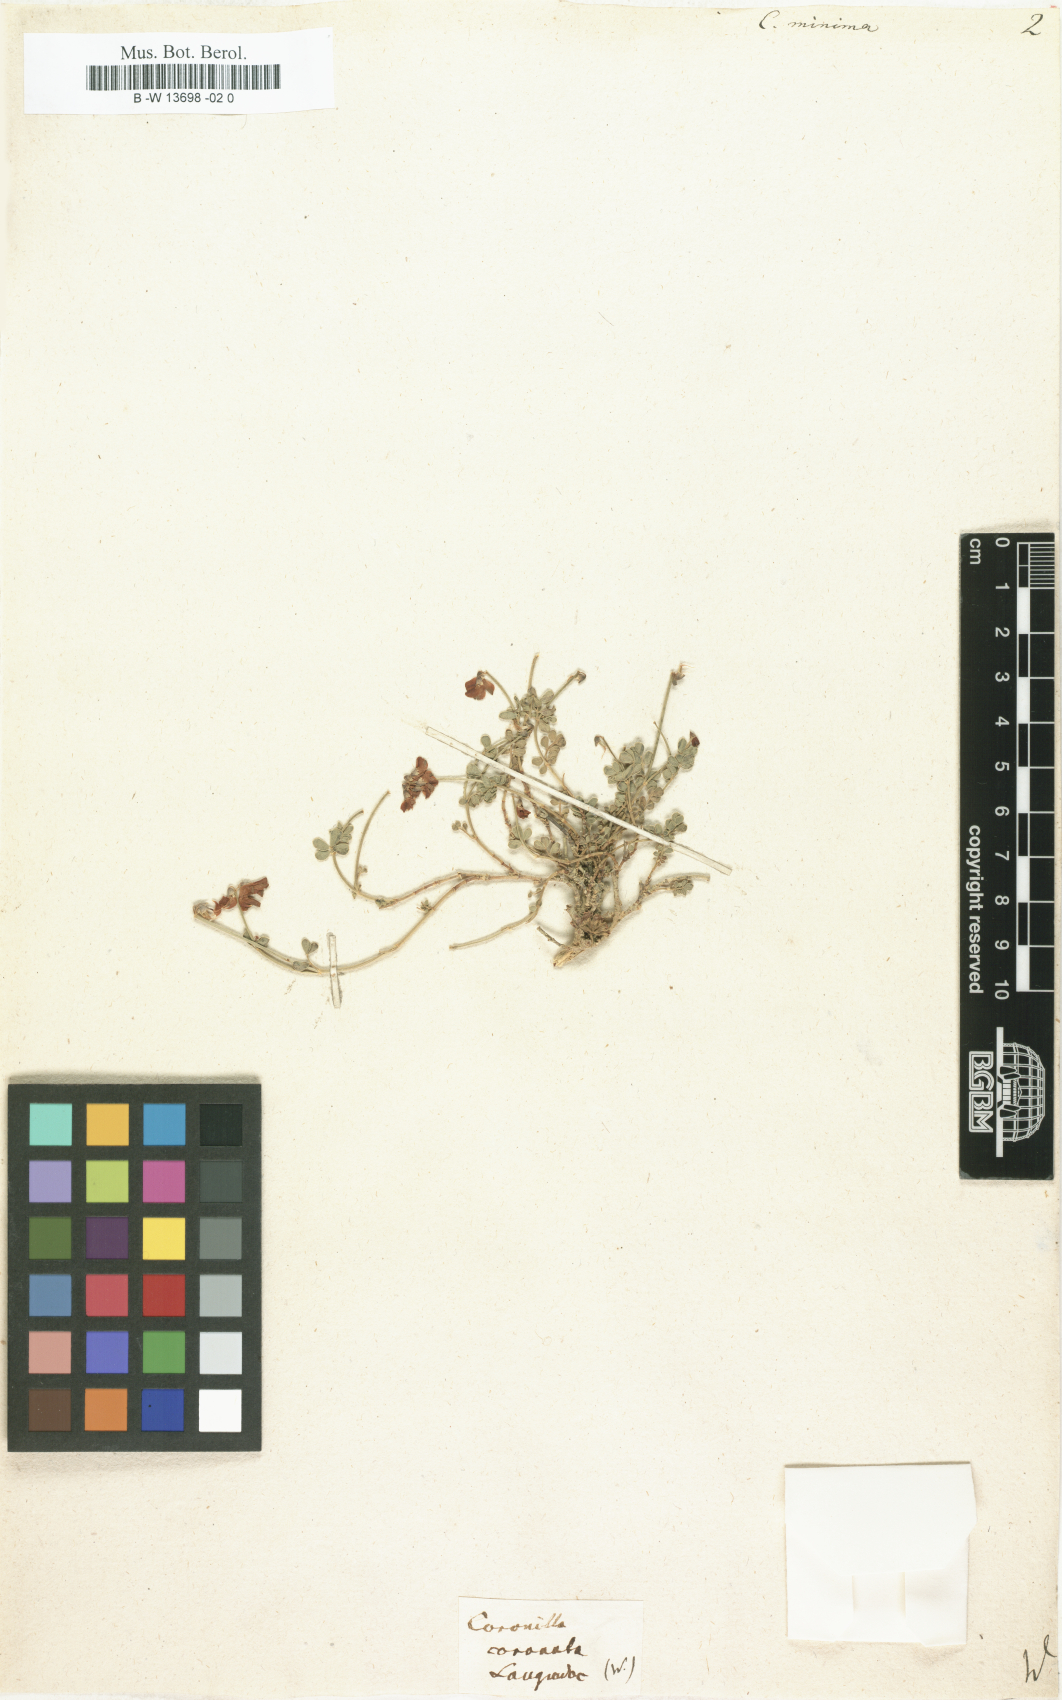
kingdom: Plantae
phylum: Tracheophyta
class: Magnoliopsida
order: Fabales
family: Fabaceae
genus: Coronilla
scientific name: Coronilla minima
